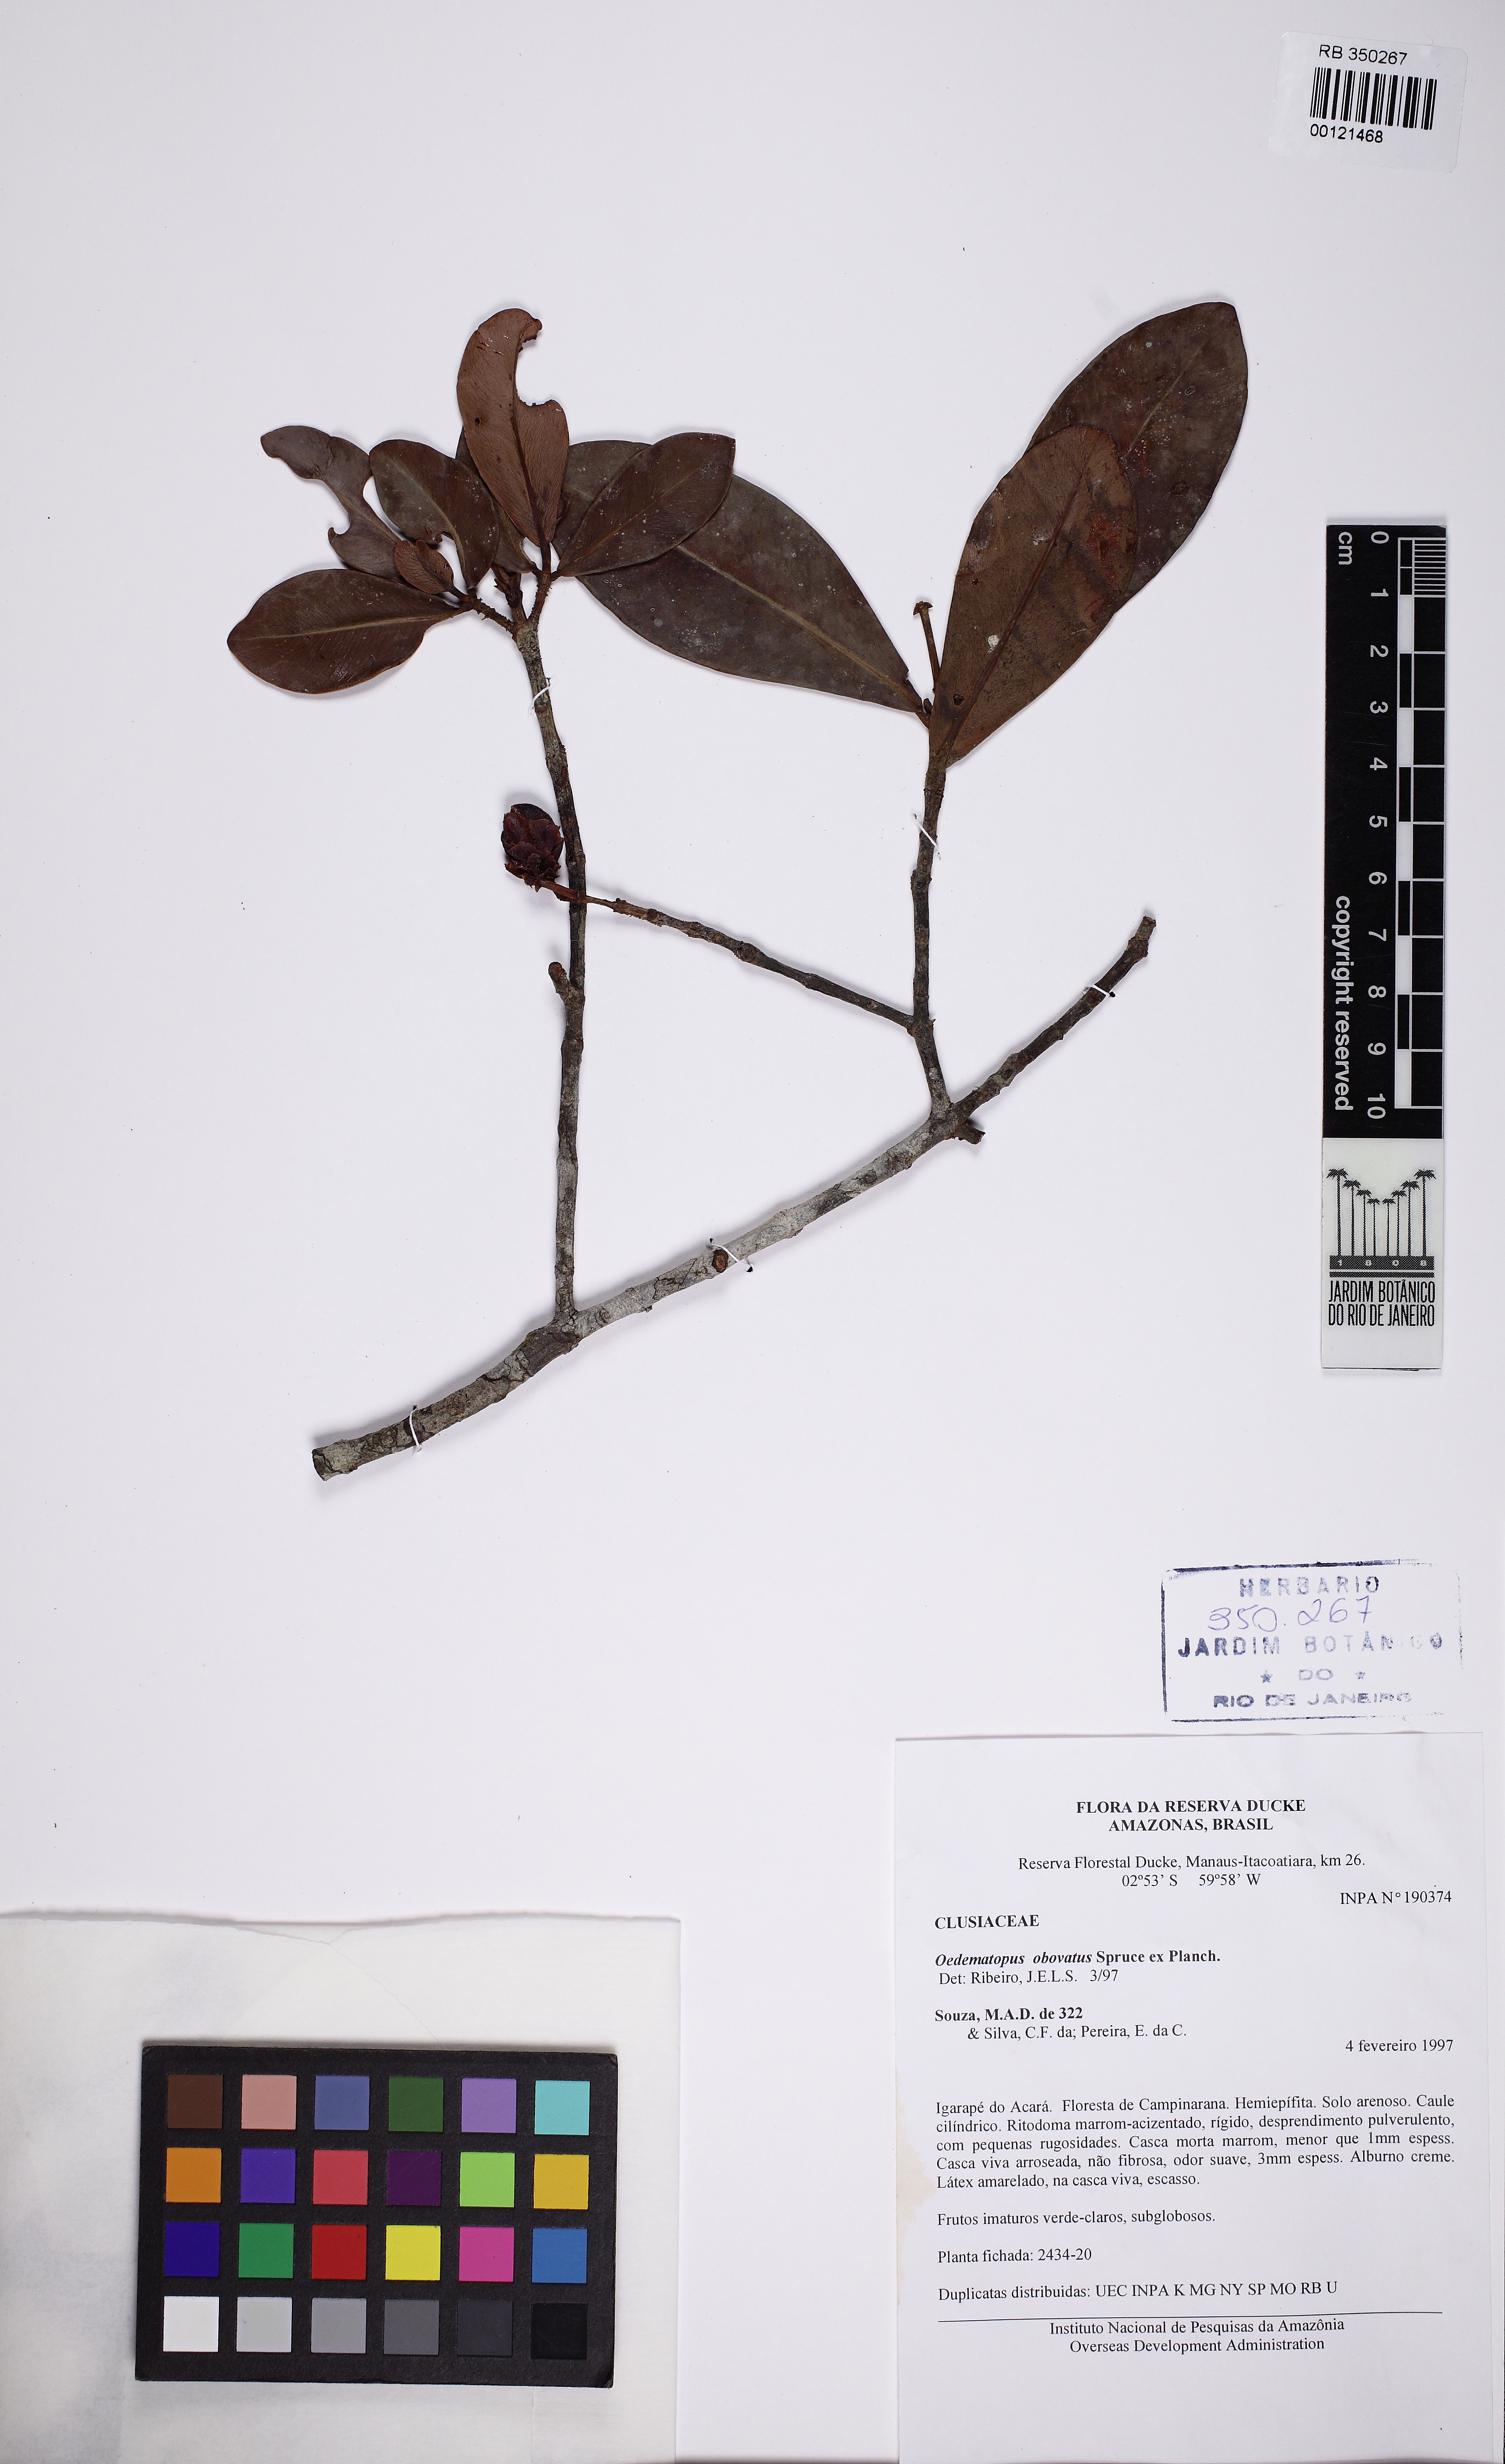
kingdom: Plantae
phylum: Tracheophyta
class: Magnoliopsida
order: Malpighiales
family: Clusiaceae
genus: Clusia
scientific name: Clusia obovata
